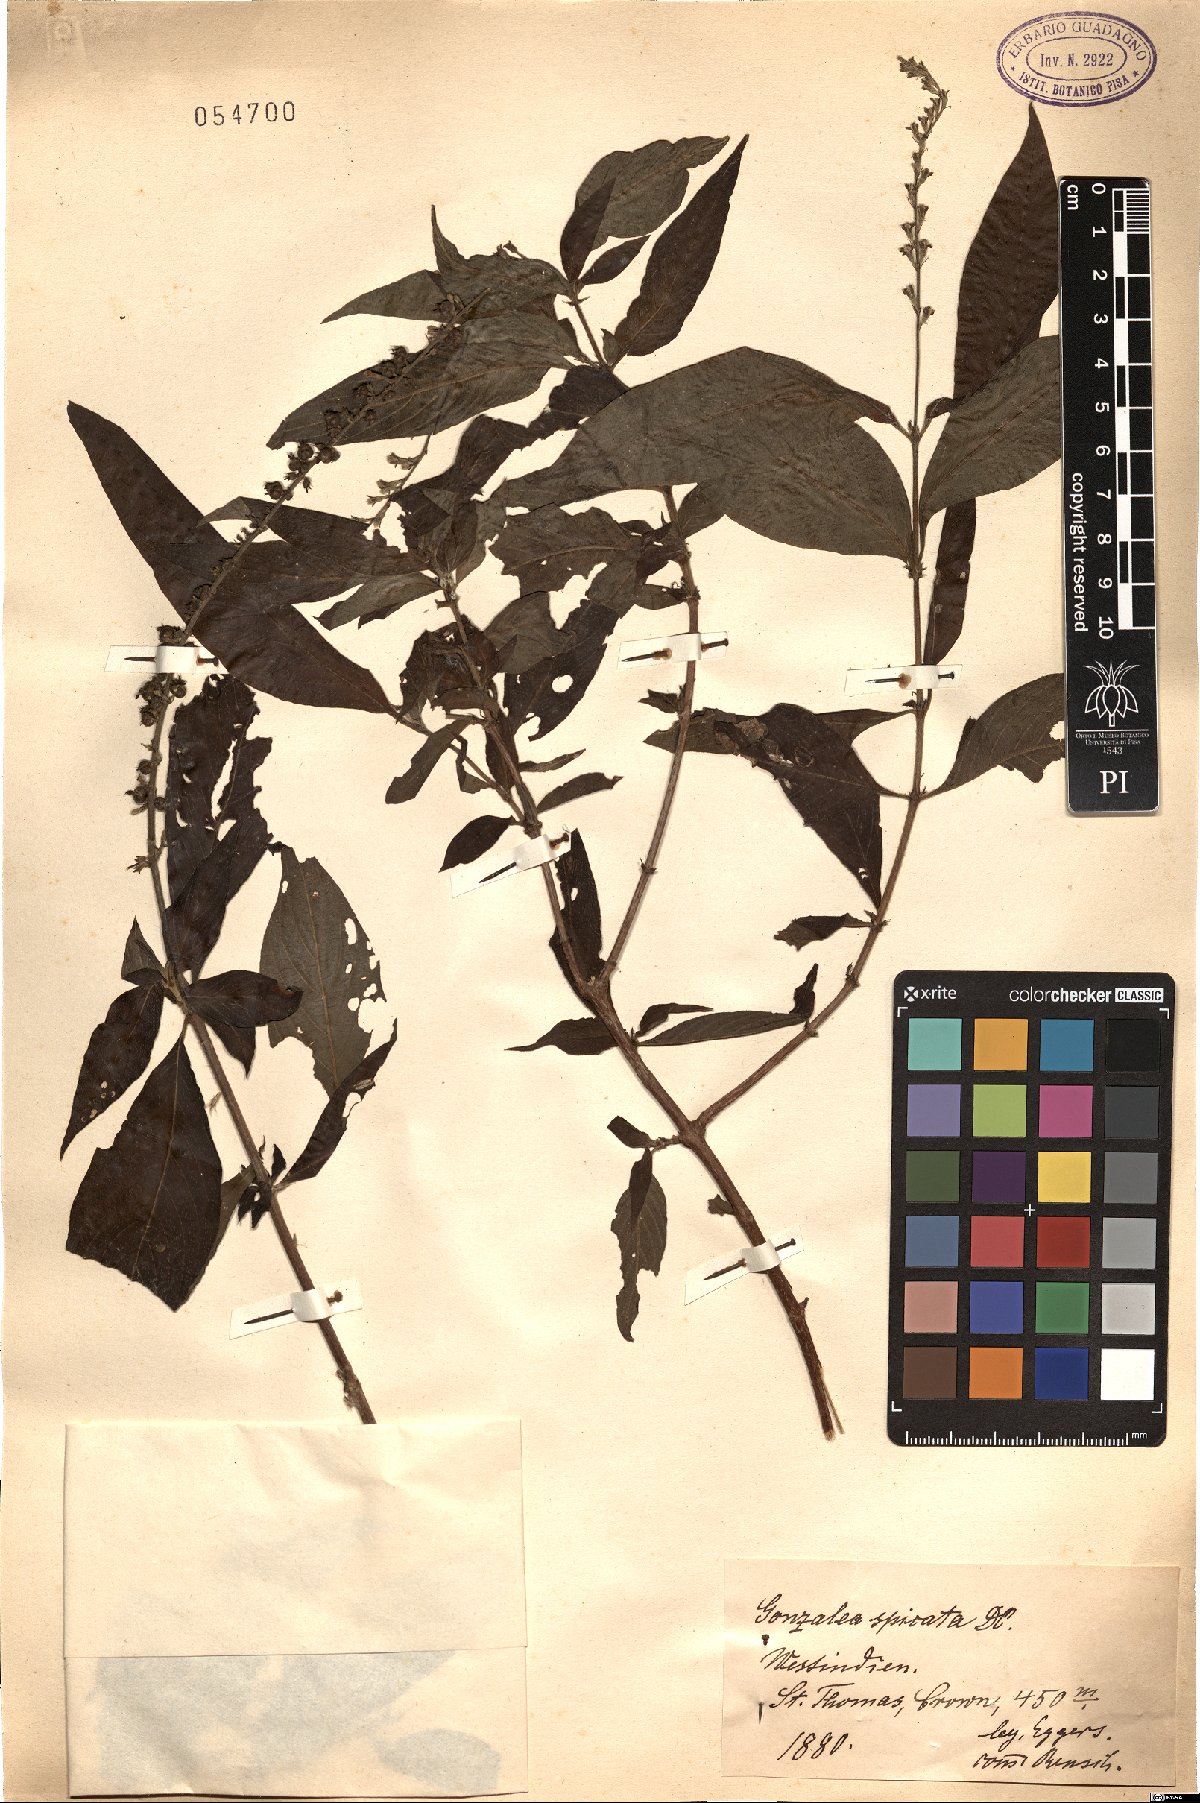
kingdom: Plantae
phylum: Tracheophyta
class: Magnoliopsida
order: Gentianales
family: Rubiaceae
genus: Gonzalagunia
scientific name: Gonzalagunia hirsuta
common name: Mata de mariposa
